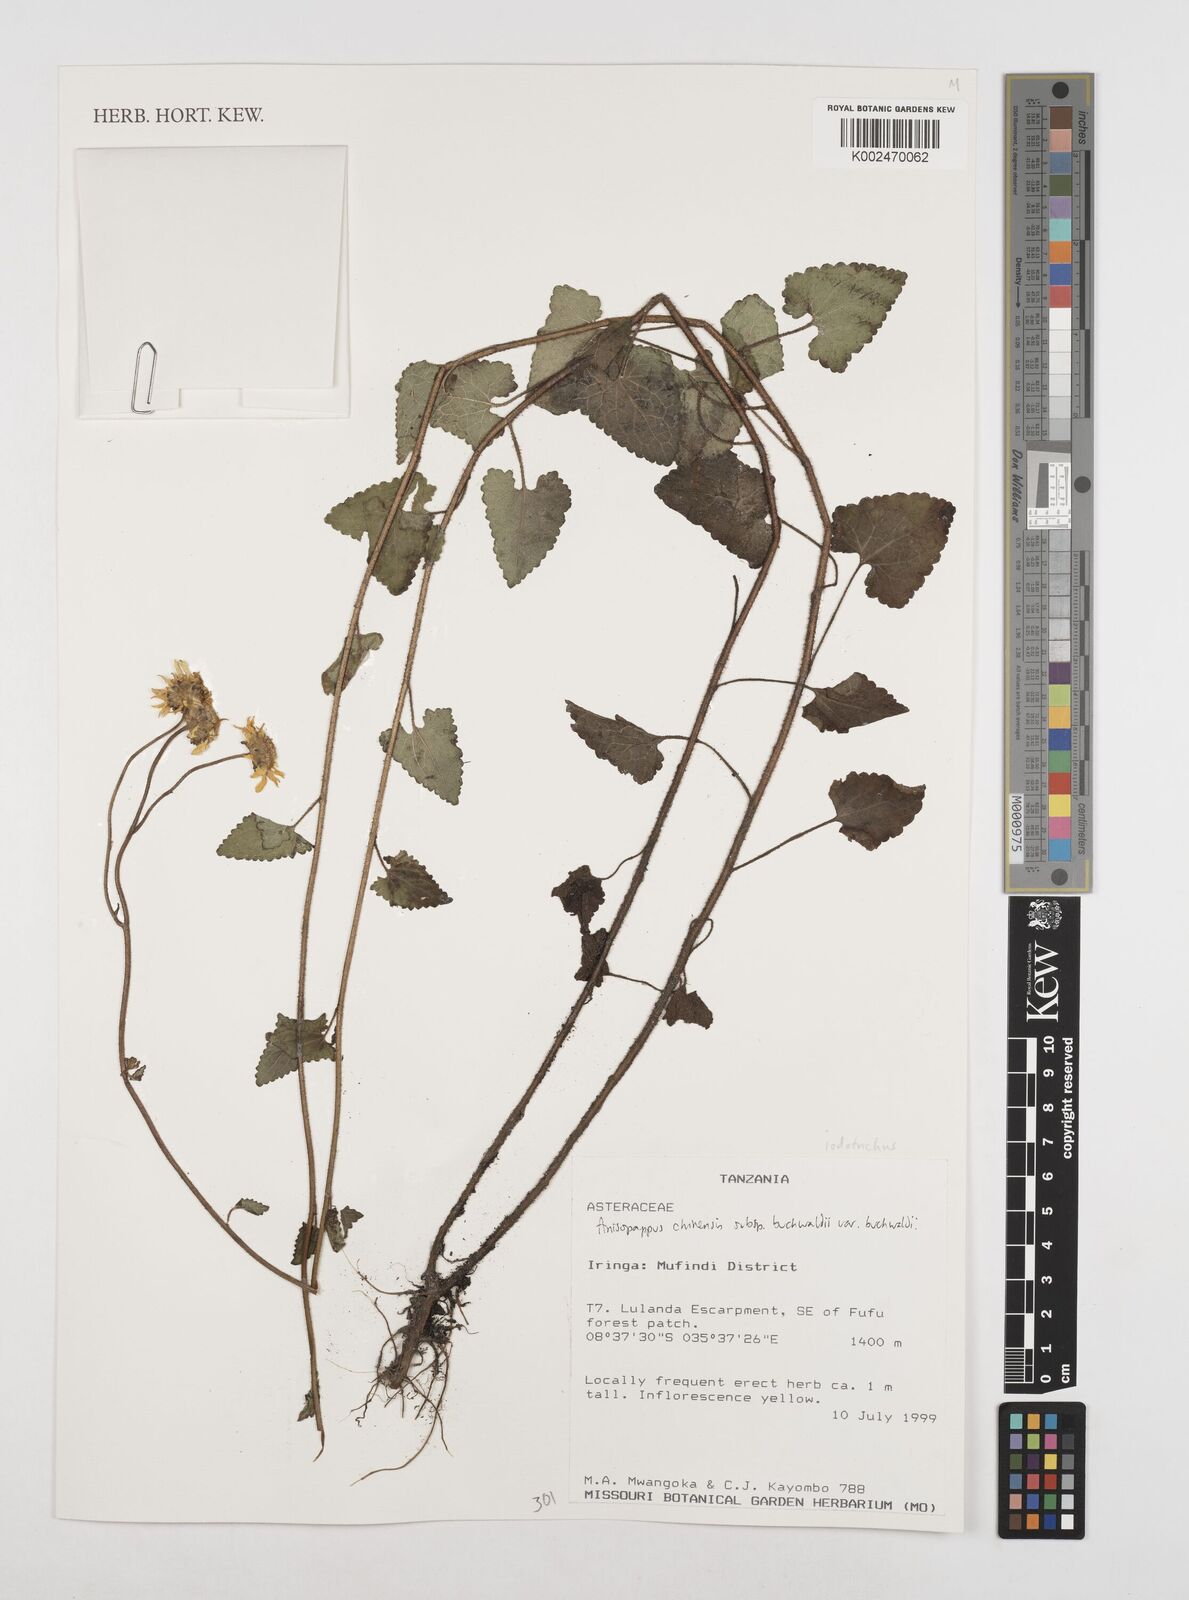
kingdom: Plantae
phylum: Tracheophyta
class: Magnoliopsida
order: Asterales
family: Asteraceae
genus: Anisopappus
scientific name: Anisopappus buchwaldii
